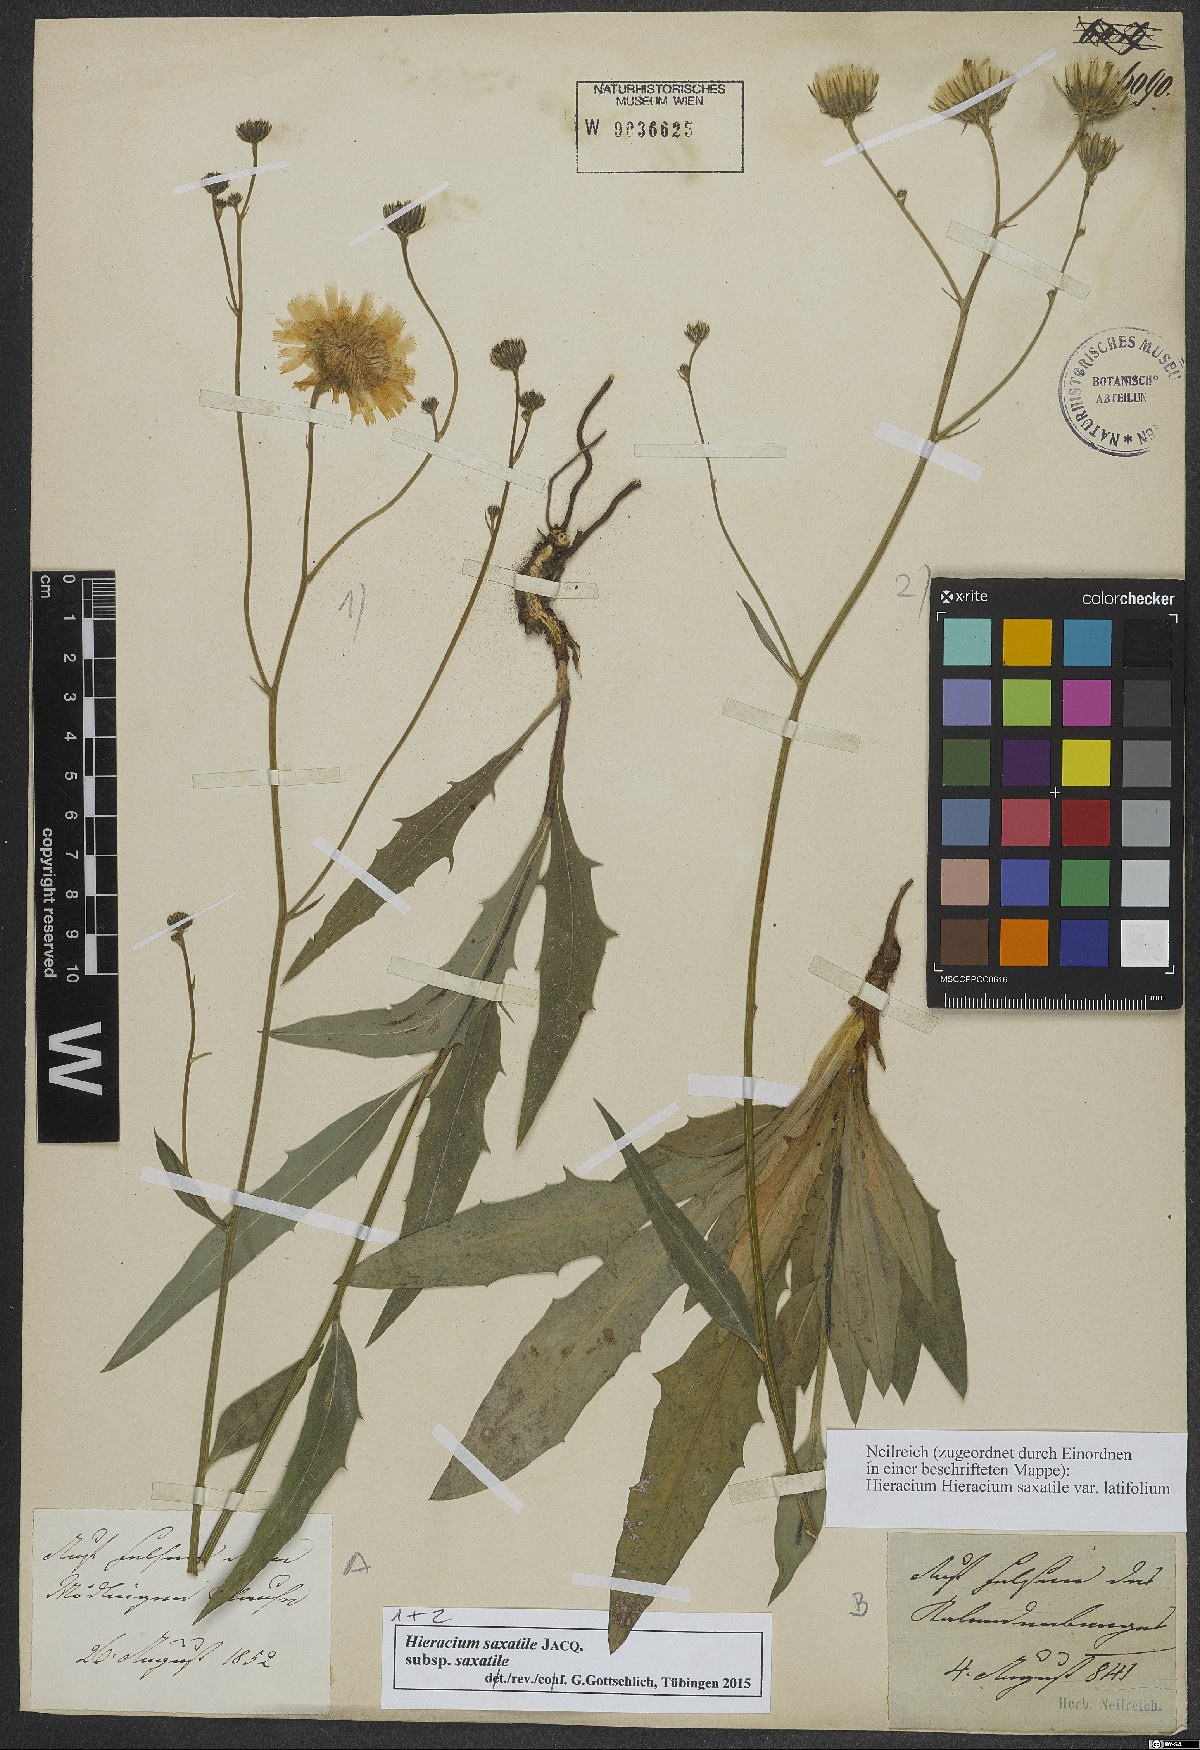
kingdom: Plantae
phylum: Tracheophyta
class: Magnoliopsida
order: Asterales
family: Asteraceae
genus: Hieracium
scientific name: Hieracium saxatile
